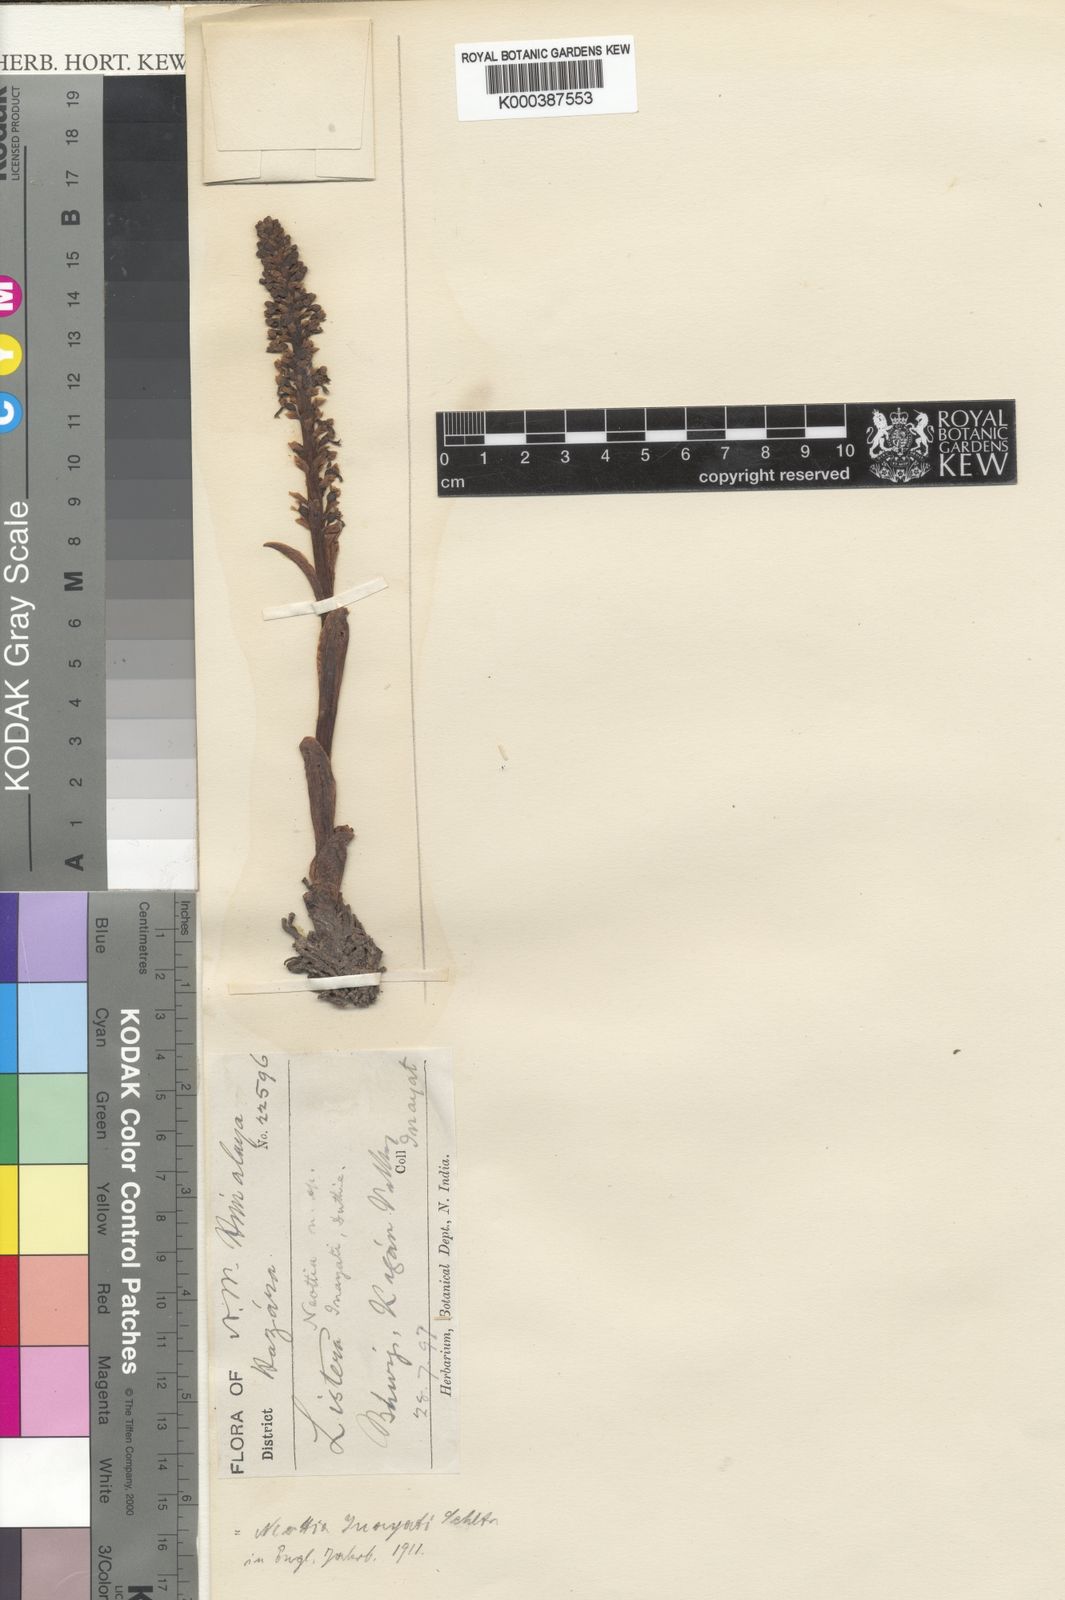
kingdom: Plantae
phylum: Tracheophyta
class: Liliopsida
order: Asparagales
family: Orchidaceae
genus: Neottia
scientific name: Neottia inayatii
